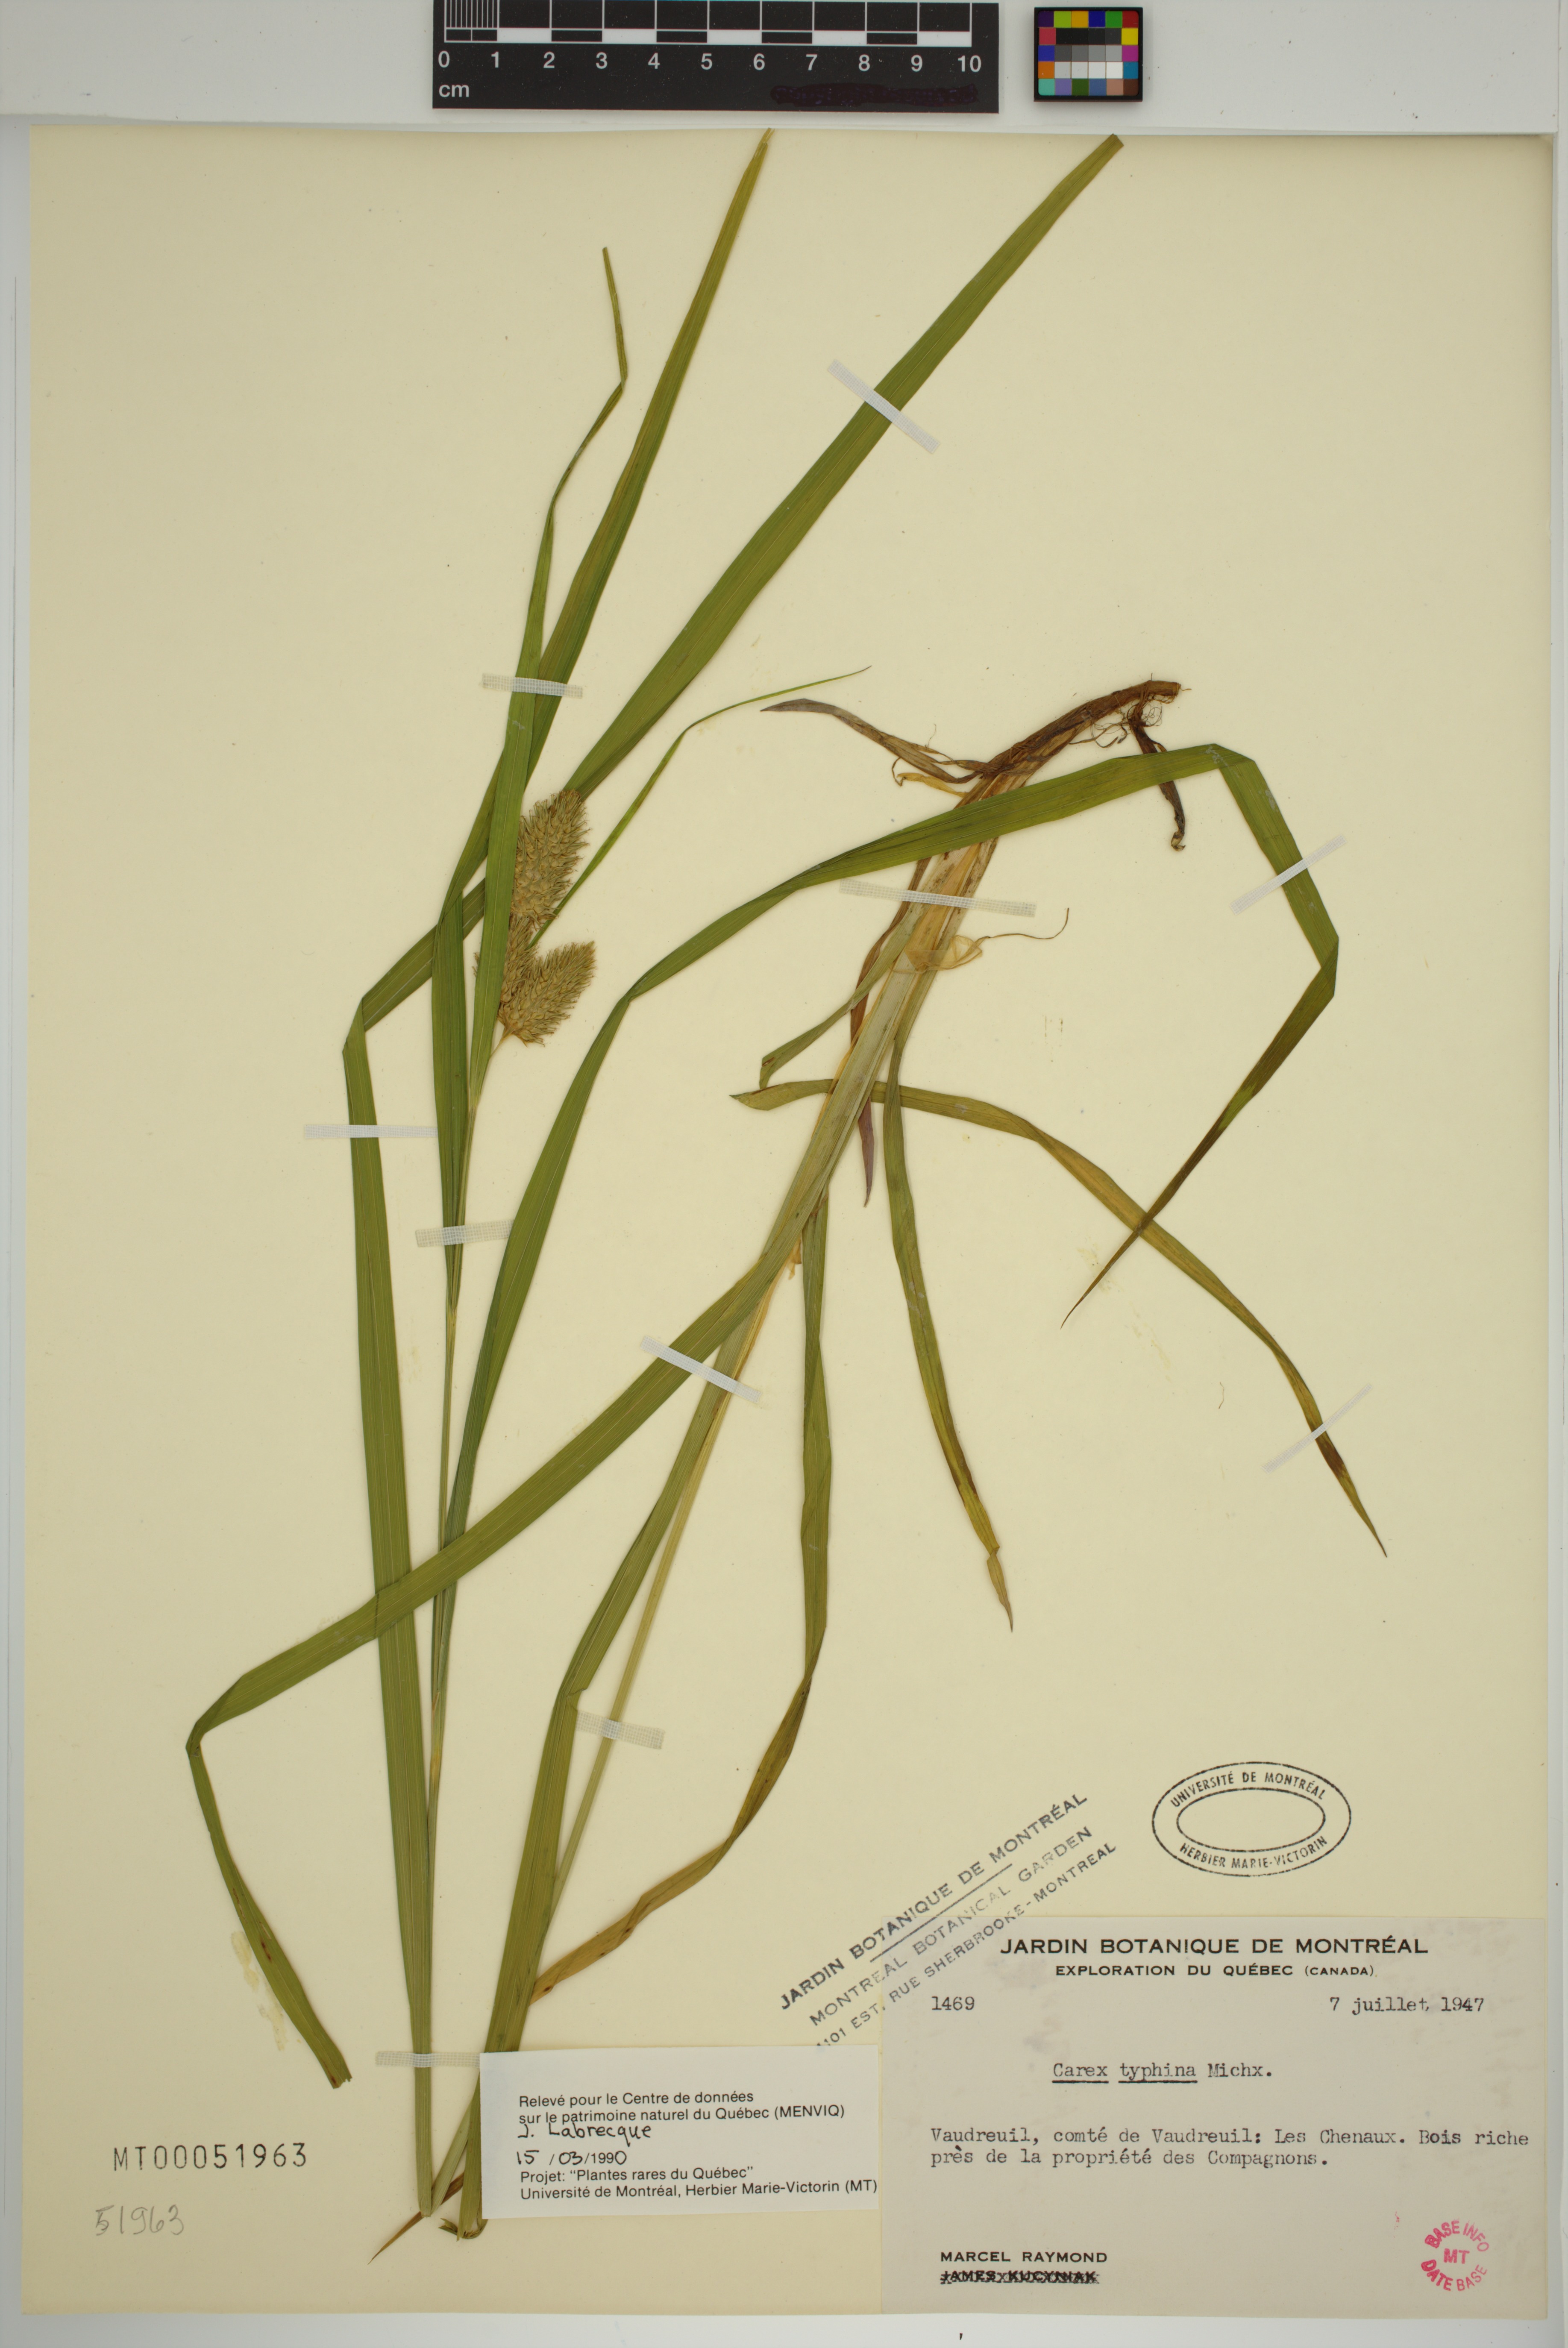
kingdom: Plantae
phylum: Tracheophyta
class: Liliopsida
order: Poales
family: Cyperaceae
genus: Carex
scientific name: Carex typhina
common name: Cattail sedge
